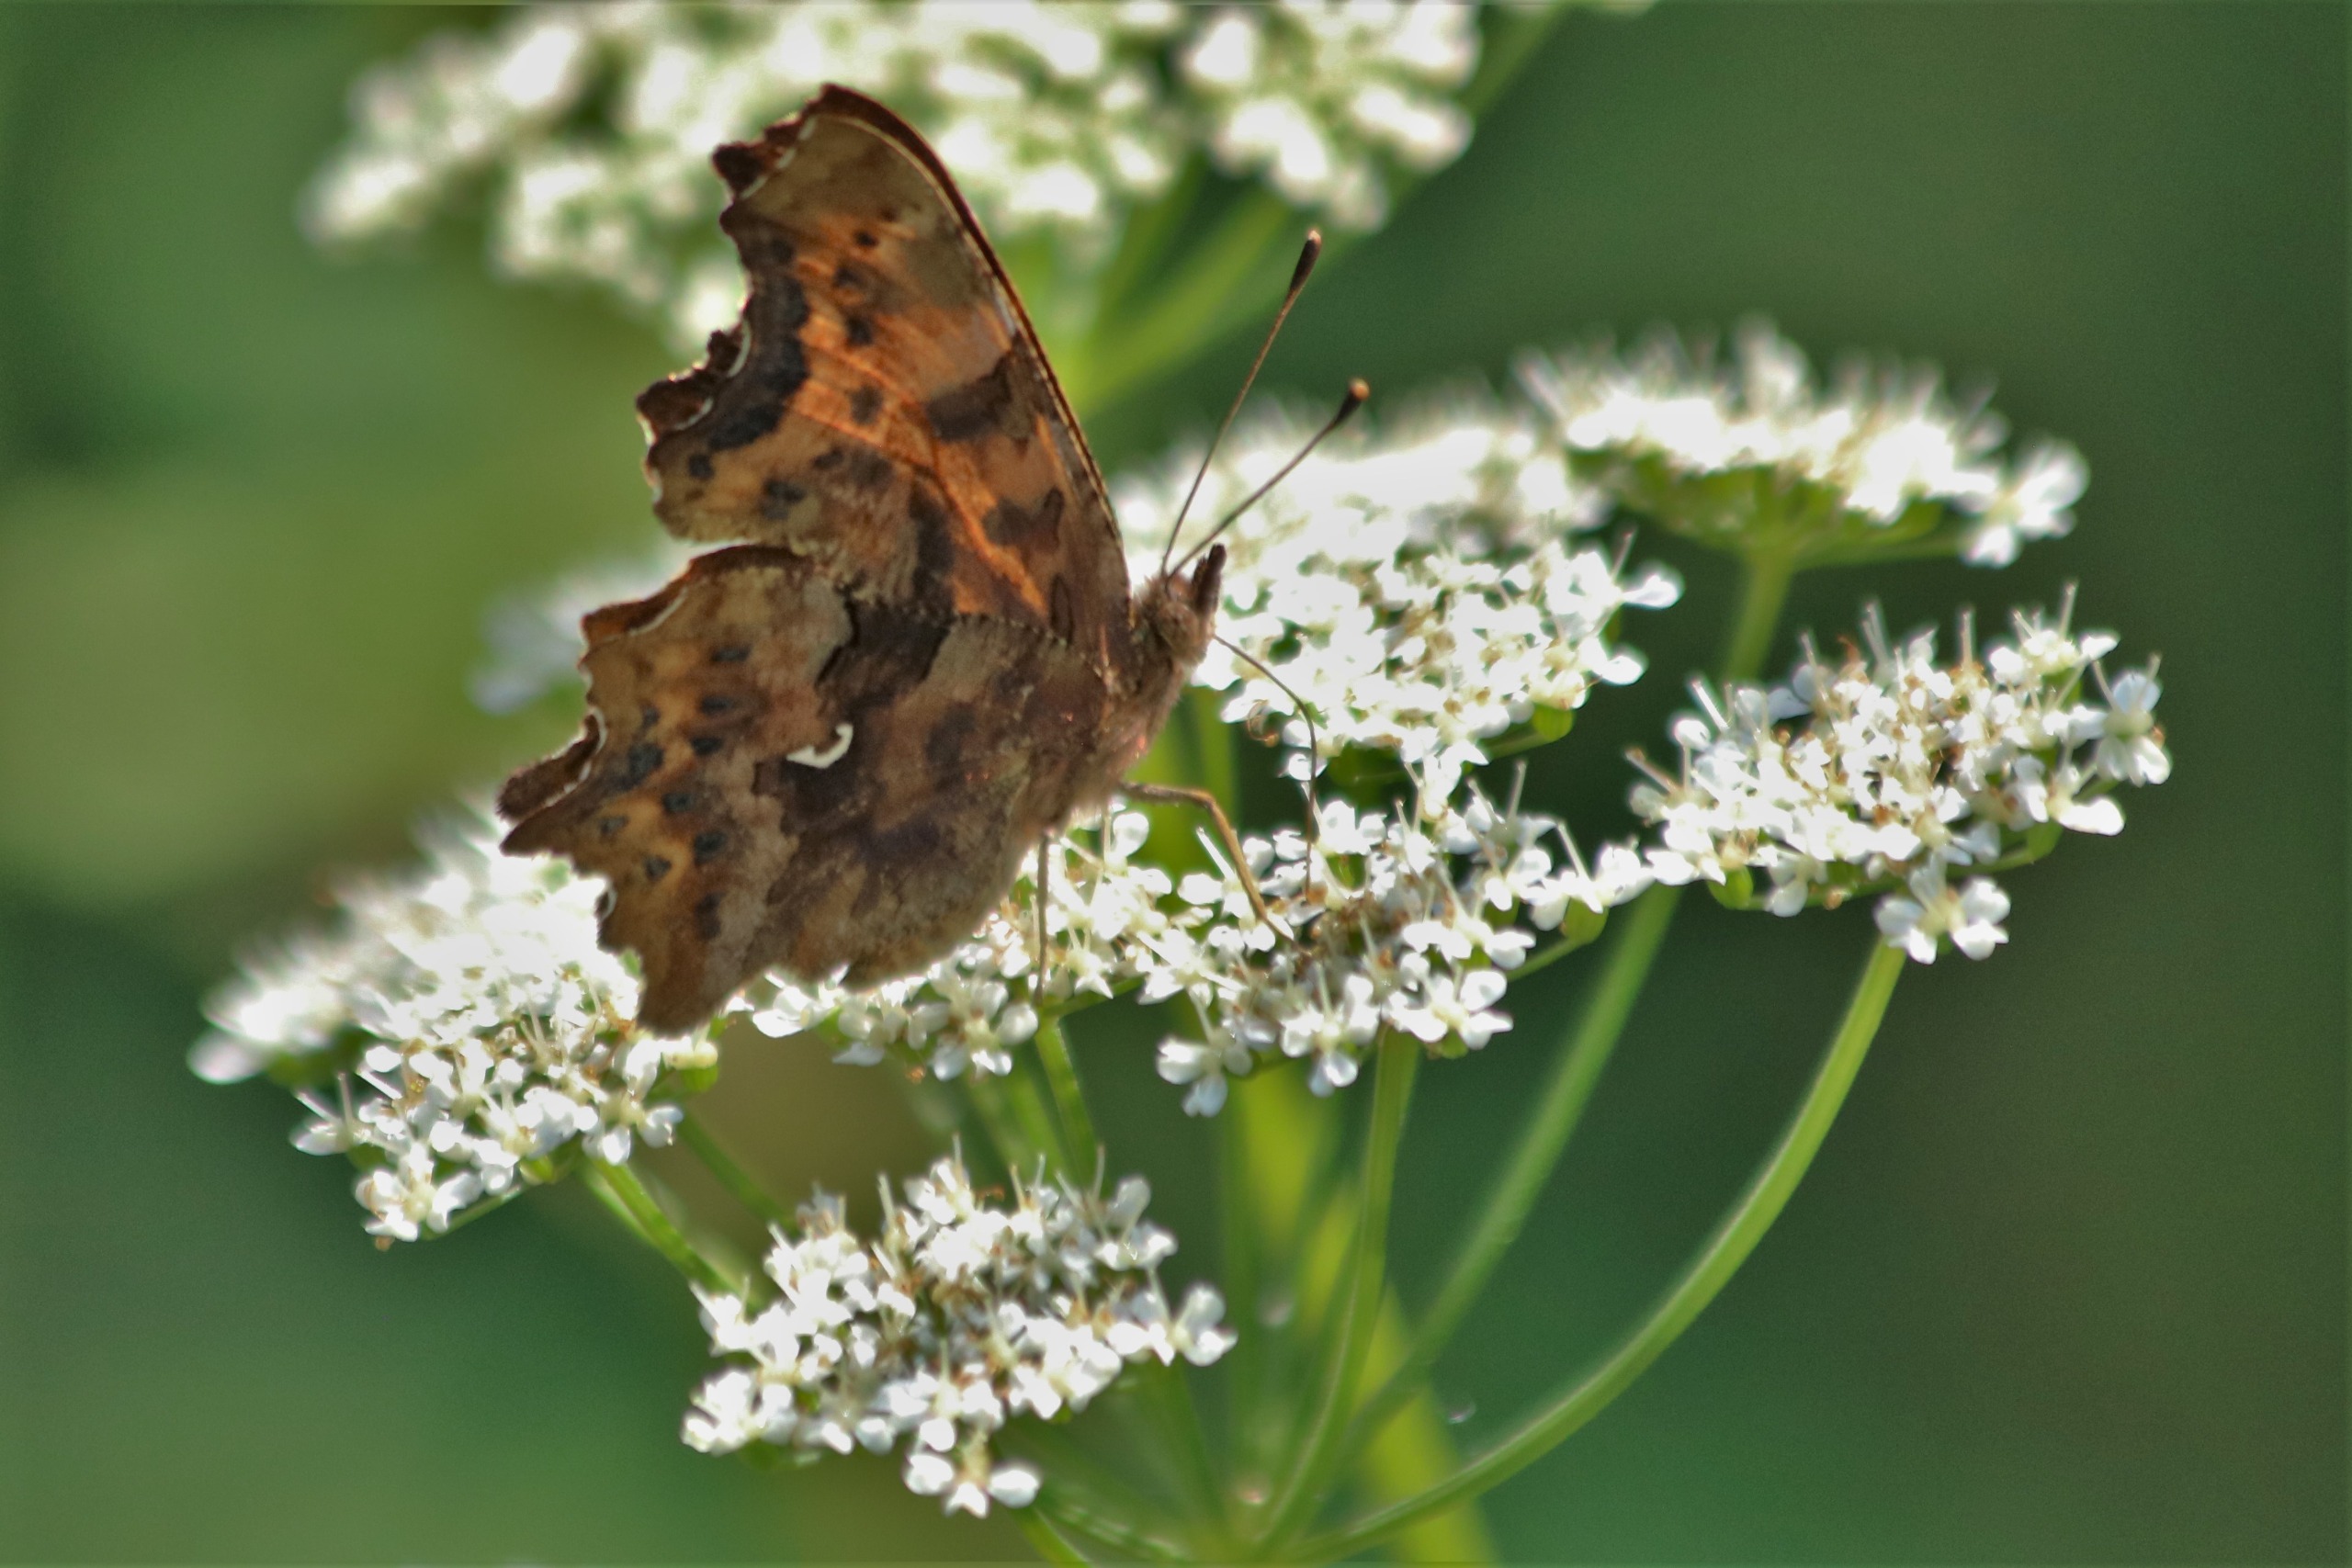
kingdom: Animalia
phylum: Arthropoda
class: Insecta
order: Lepidoptera
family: Nymphalidae
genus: Polygonia
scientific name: Polygonia c-album
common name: Det hvide C
